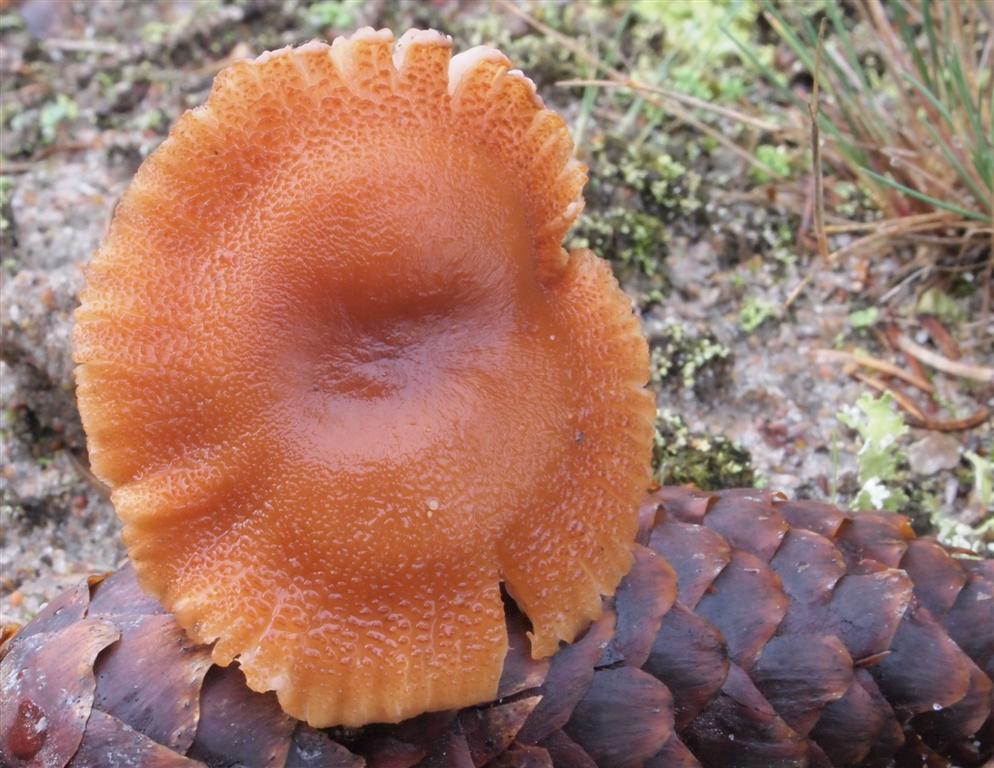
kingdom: Fungi
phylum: Basidiomycota
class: Agaricomycetes
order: Agaricales
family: Hydnangiaceae
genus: Laccaria
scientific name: Laccaria proxima
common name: stor ametysthat
